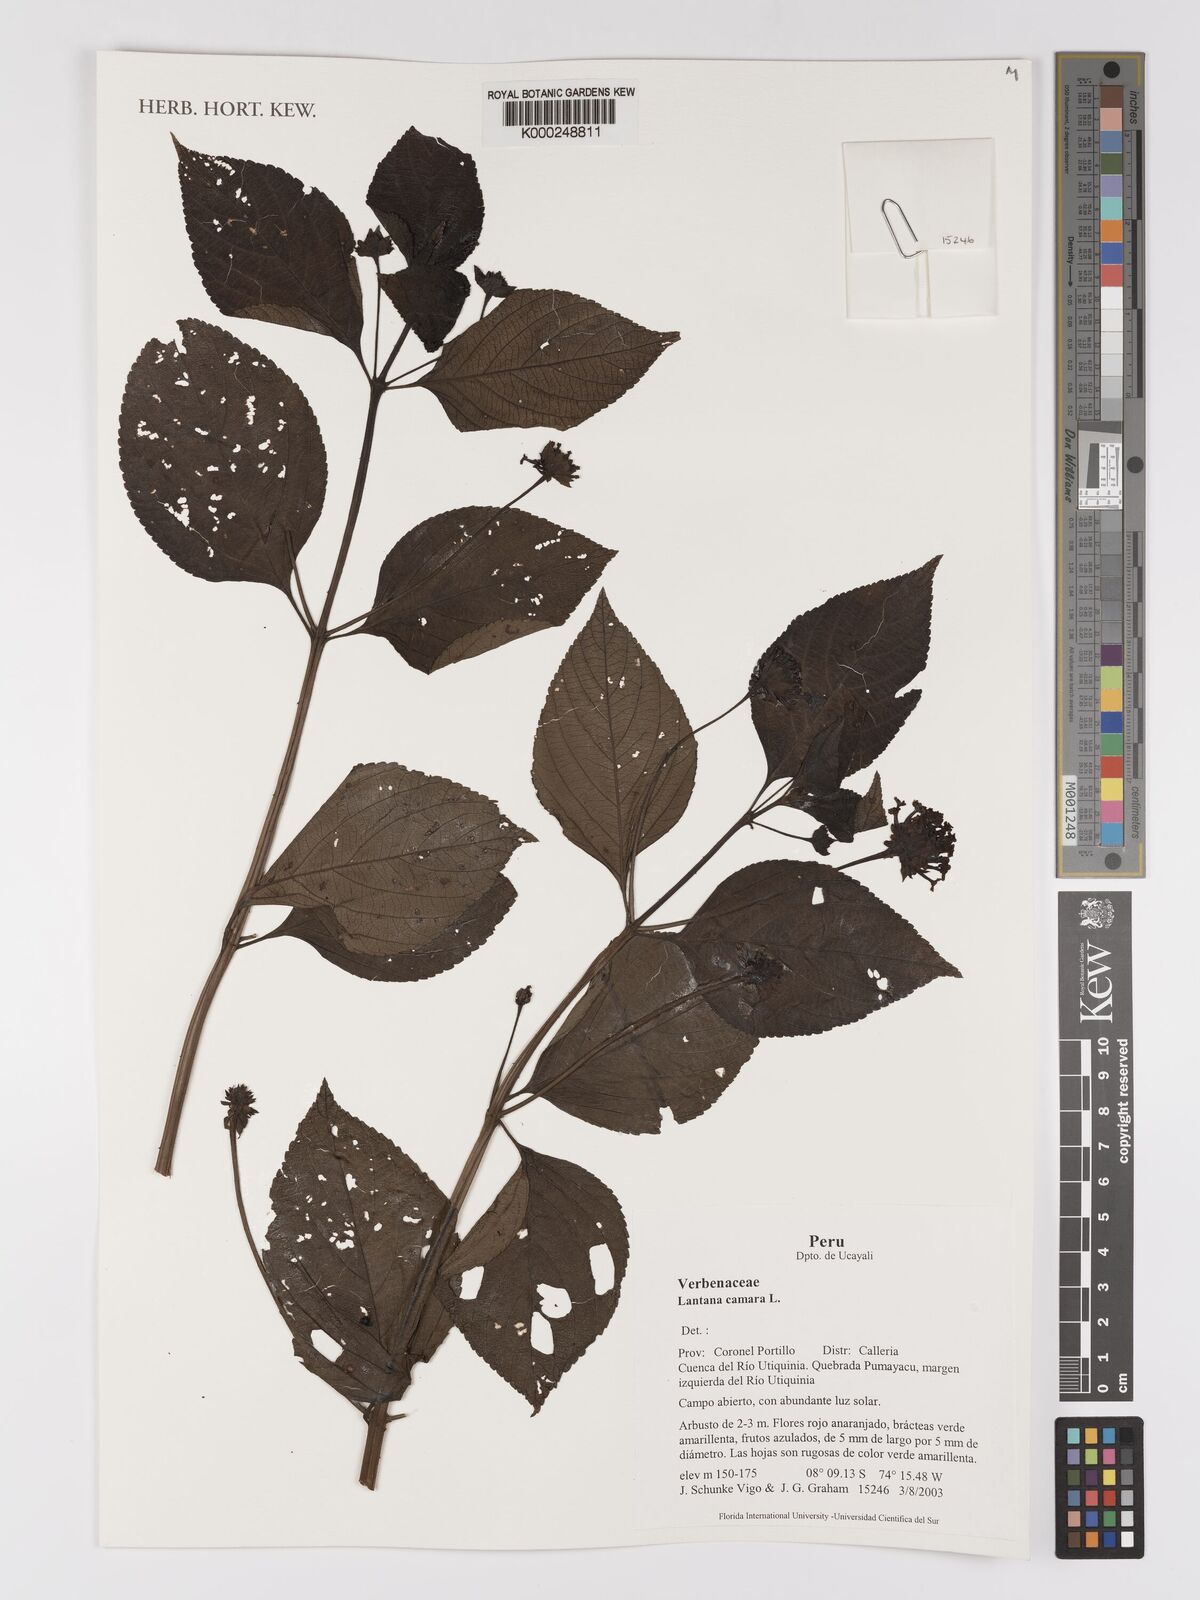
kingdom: Plantae
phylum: Tracheophyta
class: Magnoliopsida
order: Lamiales
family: Verbenaceae
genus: Lantana
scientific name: Lantana camara
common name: Lantana
